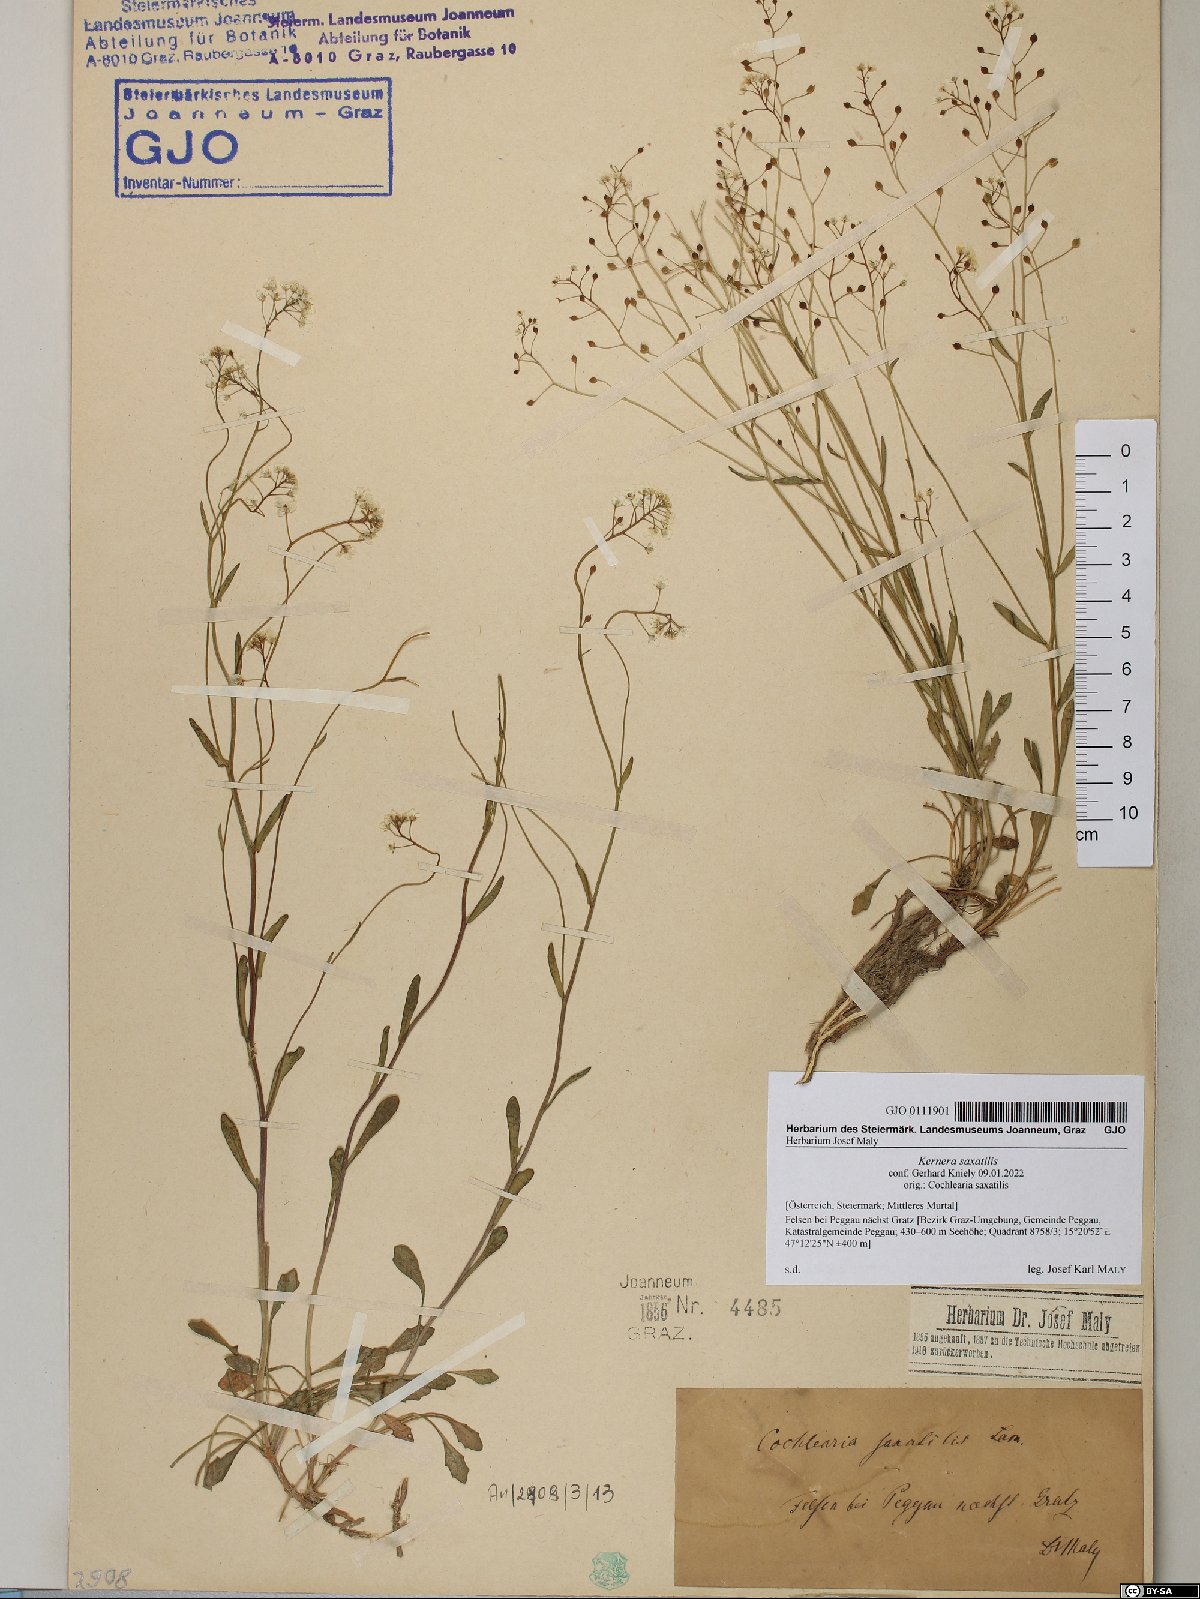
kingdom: Plantae
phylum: Tracheophyta
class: Magnoliopsida
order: Brassicales
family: Brassicaceae
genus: Kernera
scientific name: Kernera saxatilis
